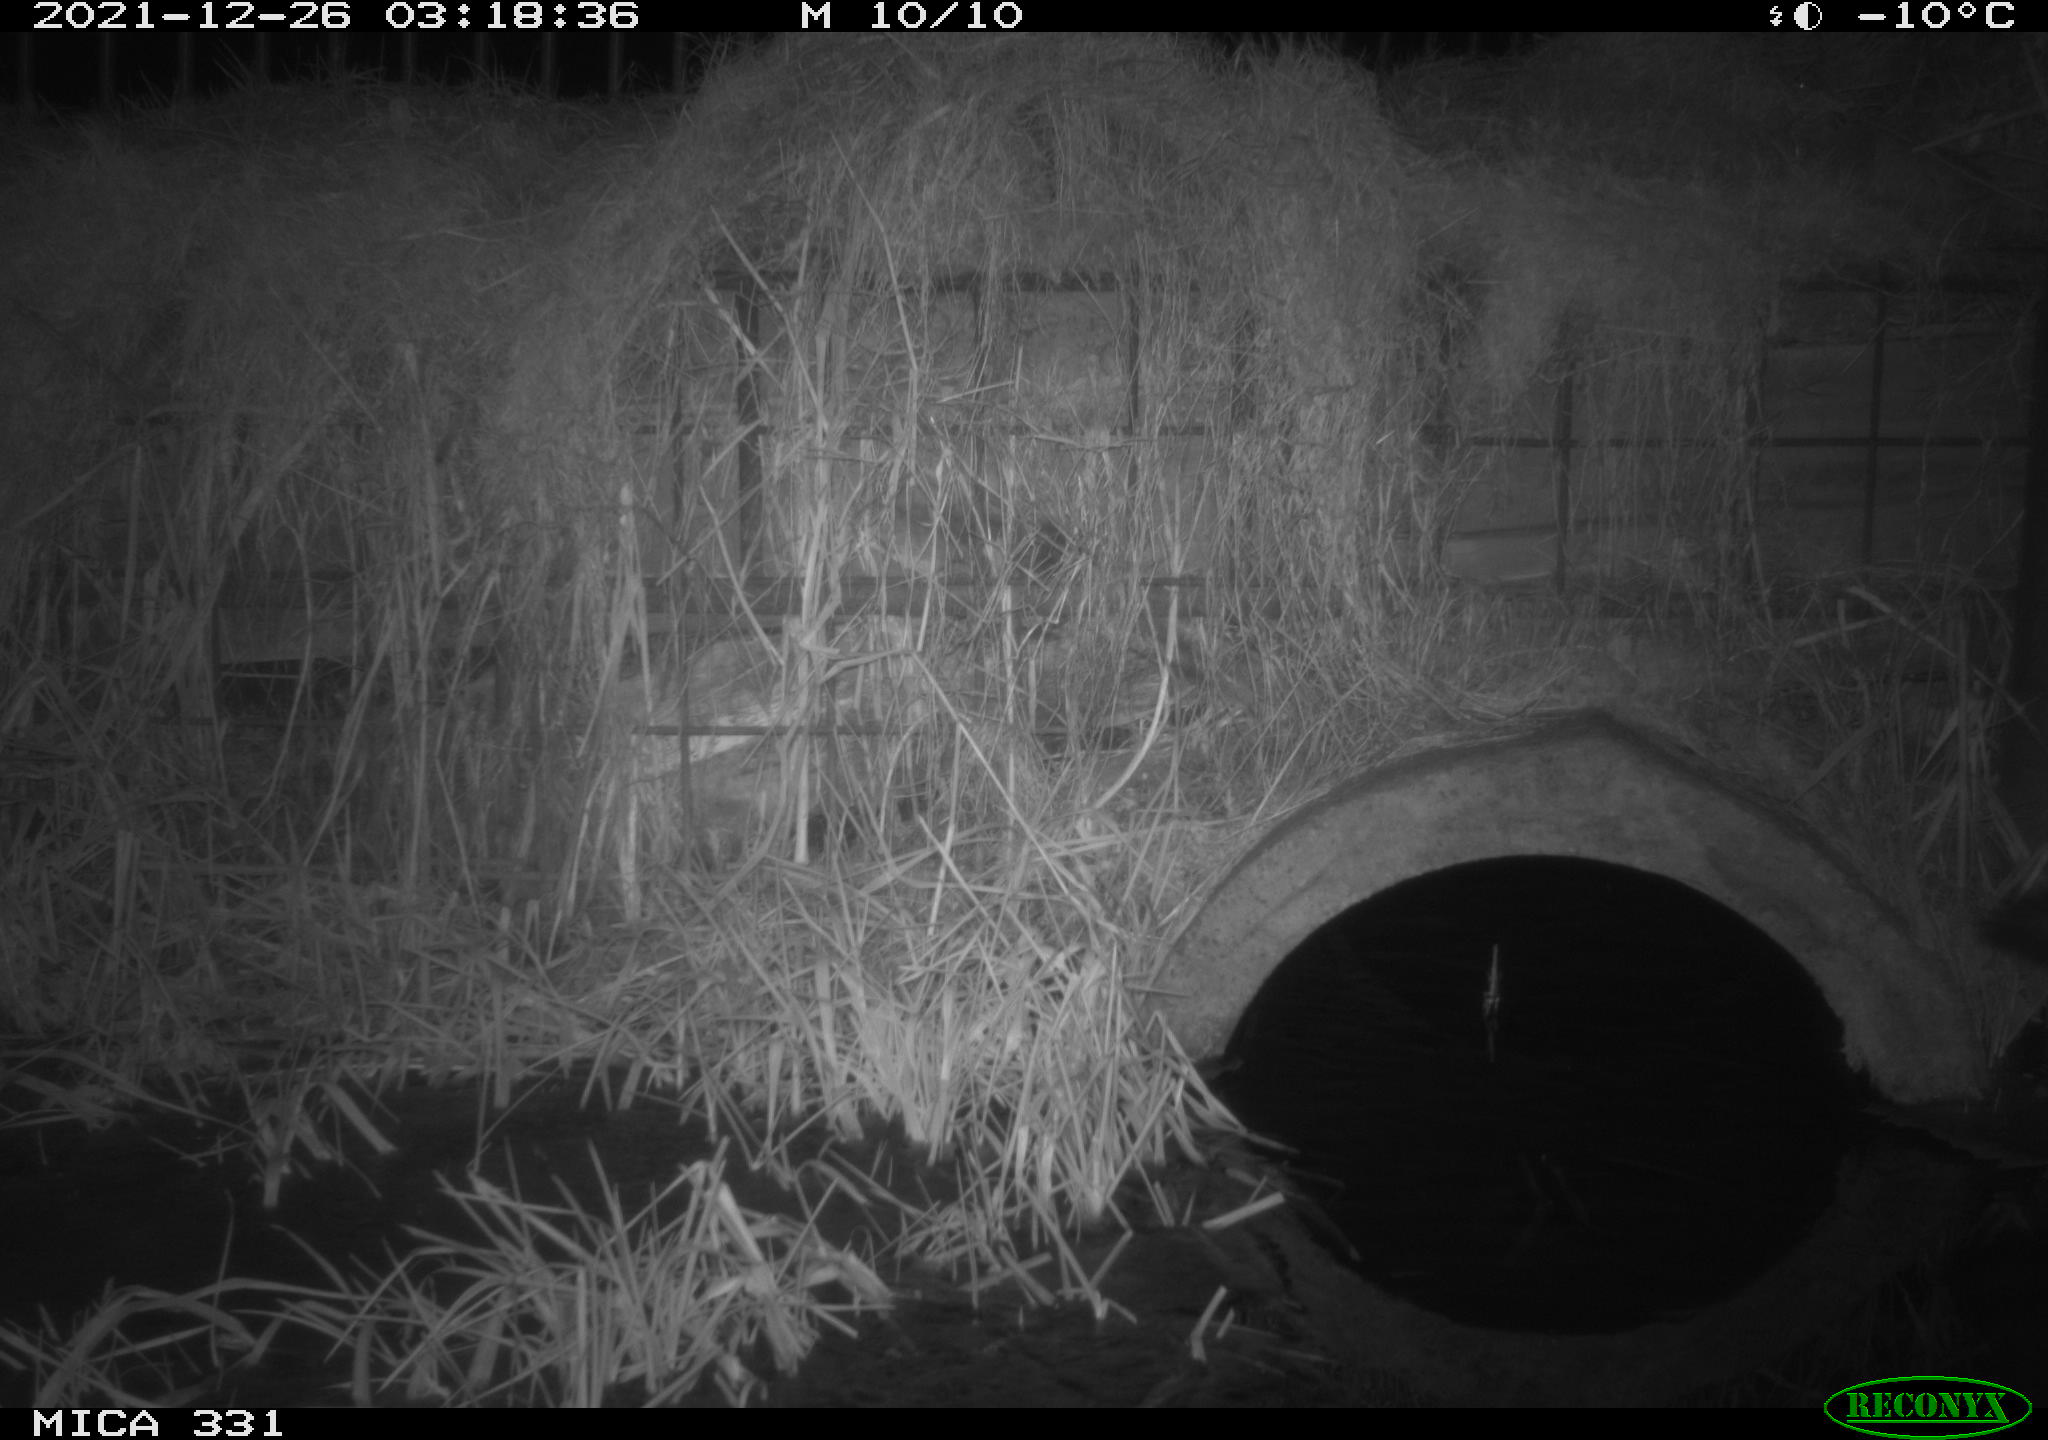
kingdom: Animalia
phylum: Chordata
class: Mammalia
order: Carnivora
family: Mustelidae
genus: Mustela
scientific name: Mustela putorius
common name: European polecat
